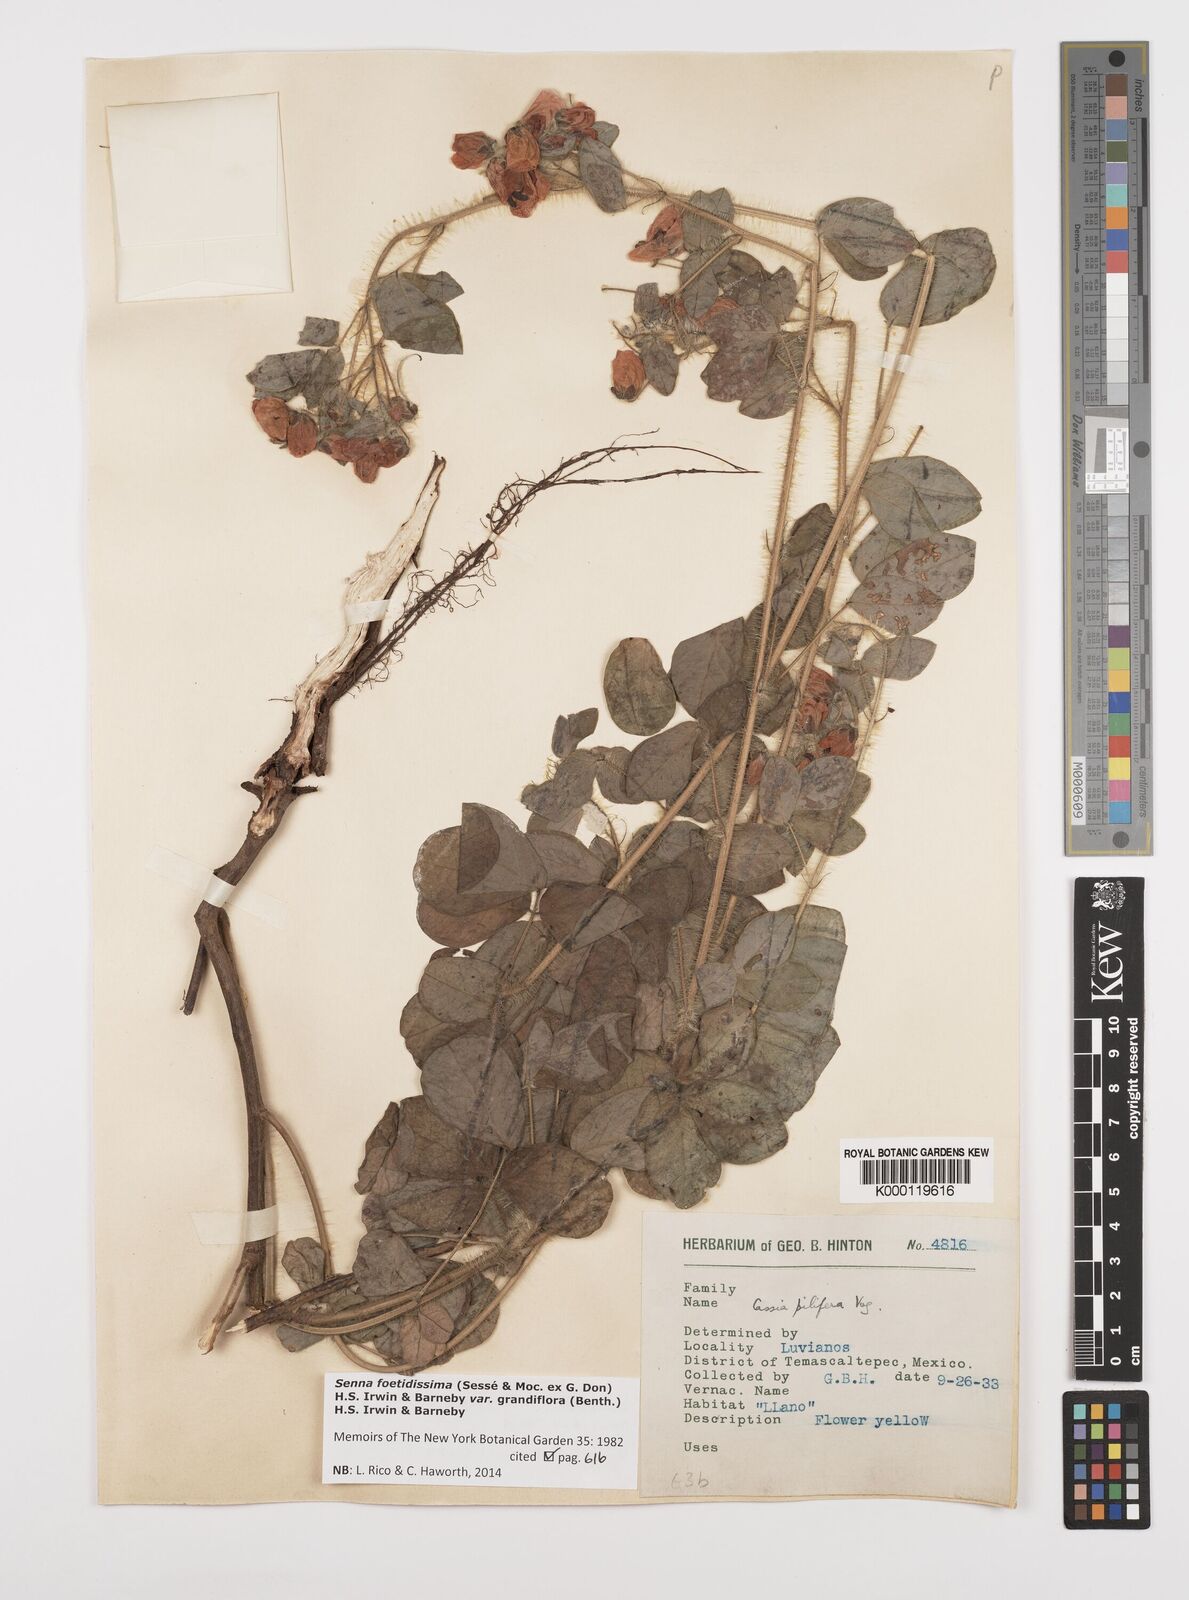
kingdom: Plantae
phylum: Tracheophyta
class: Magnoliopsida
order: Fabales
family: Fabaceae
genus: Senna
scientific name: Senna pilifera
